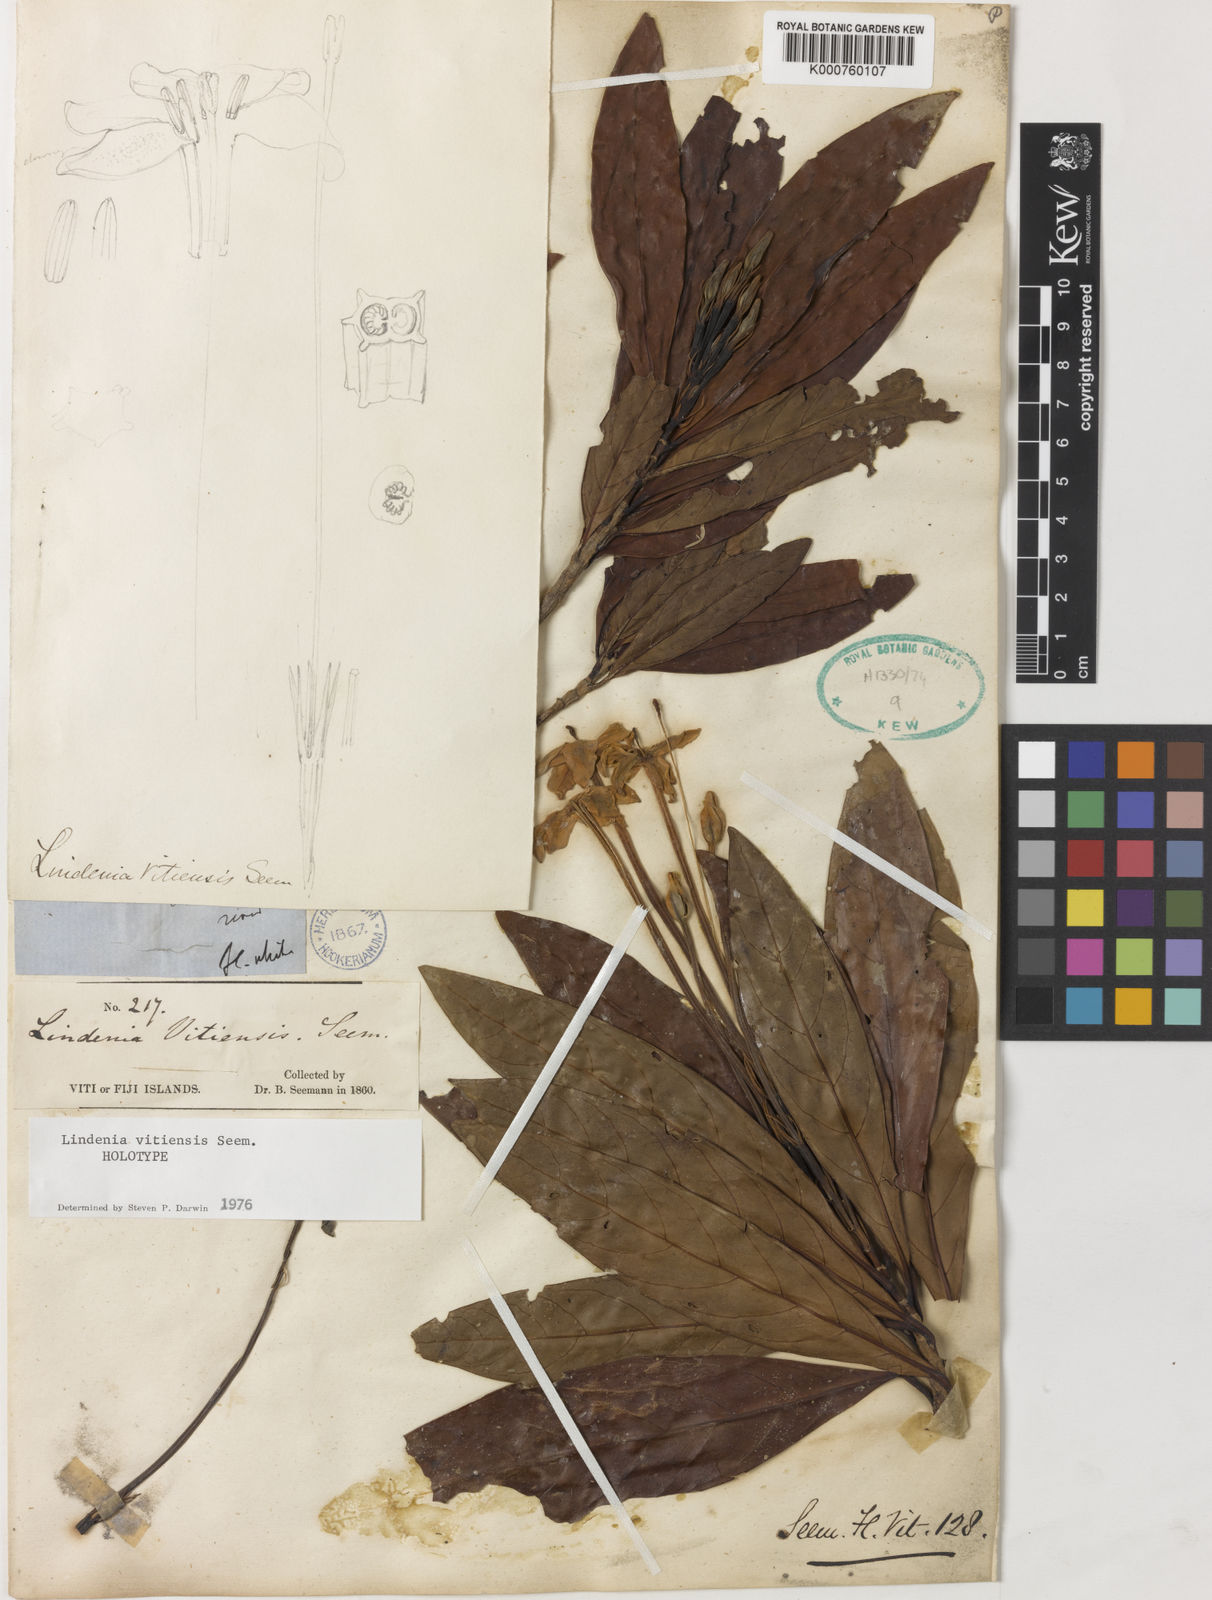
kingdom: Plantae
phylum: Tracheophyta
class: Magnoliopsida
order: Gentianales
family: Rubiaceae
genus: Augusta
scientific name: Augusta vitiensis
